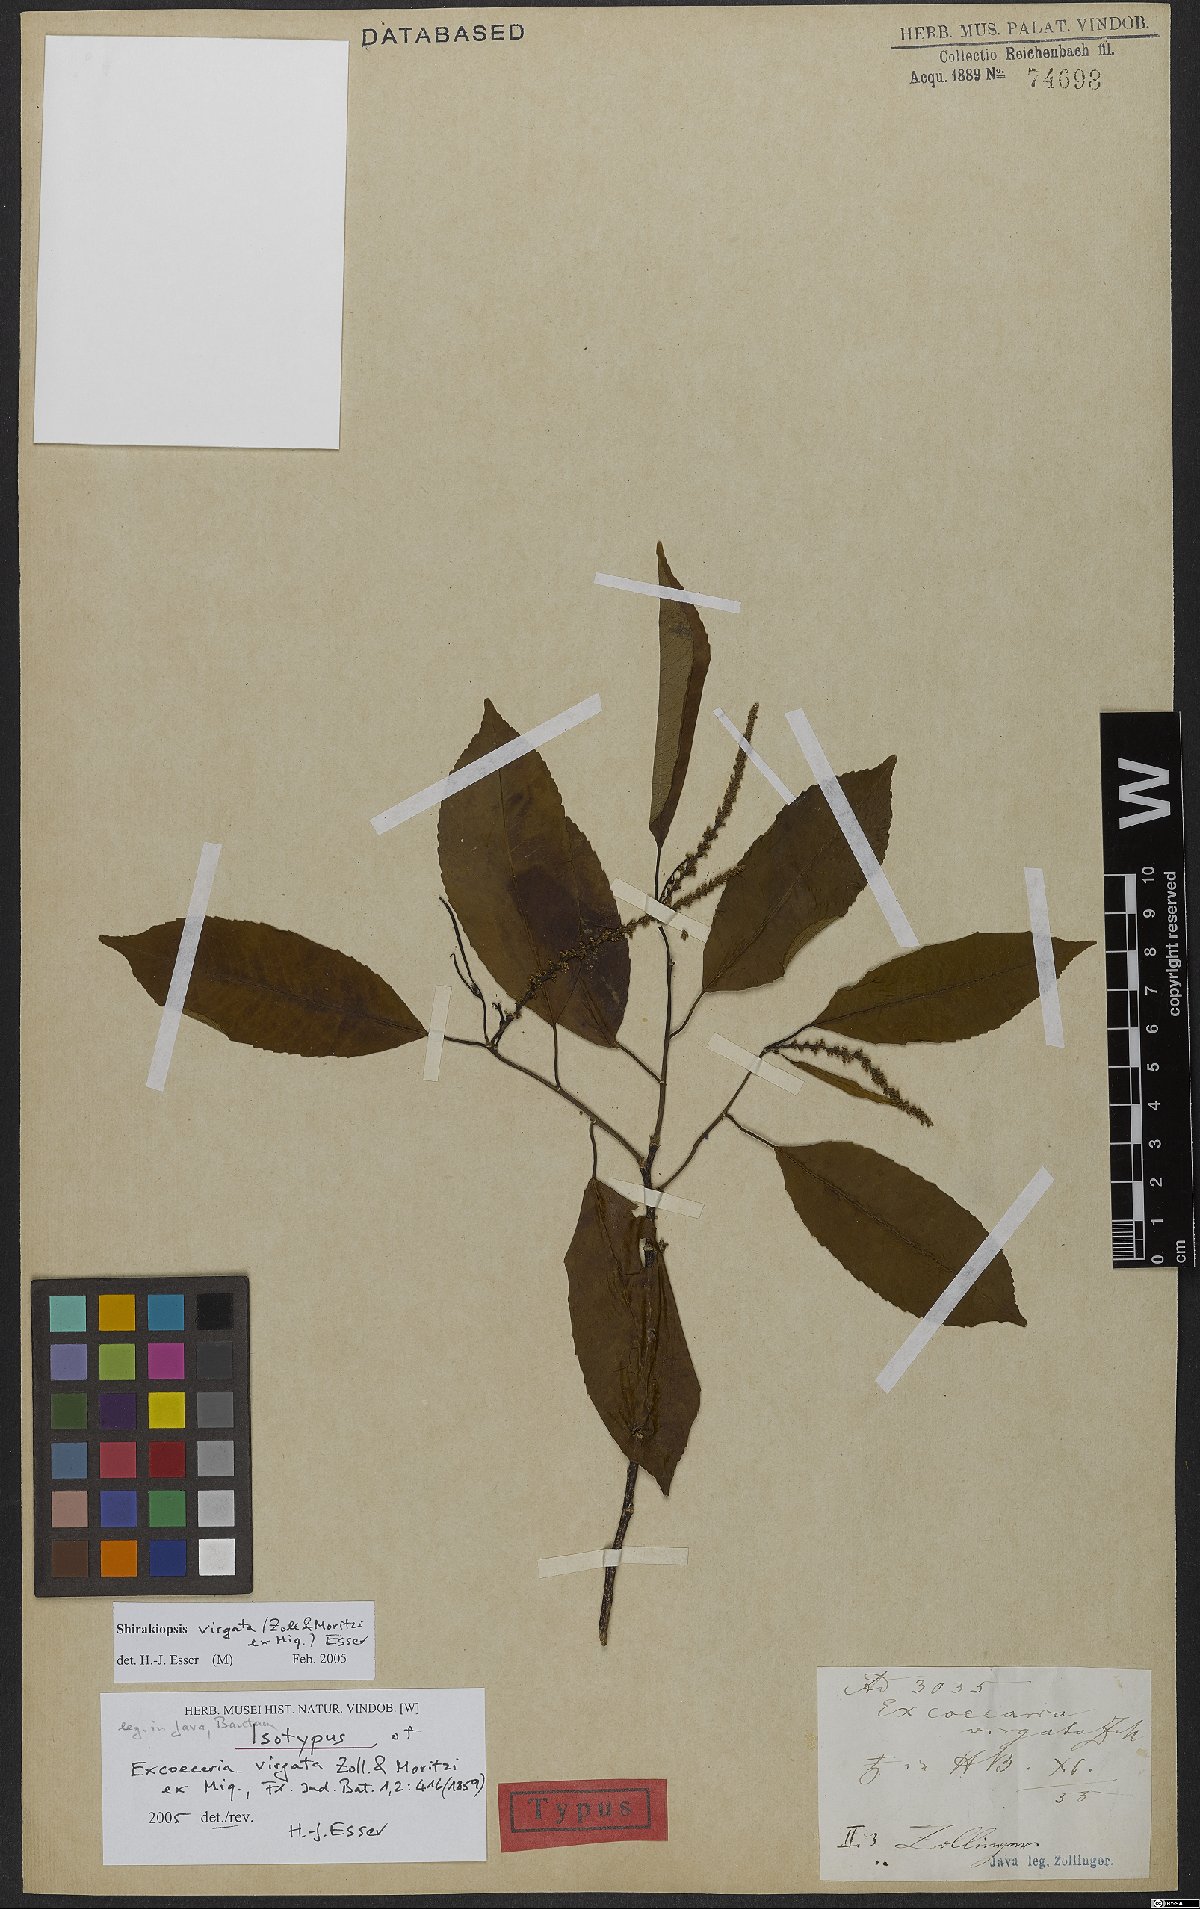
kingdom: Plantae
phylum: Tracheophyta
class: Magnoliopsida
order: Malpighiales
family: Euphorbiaceae
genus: Shirakiopsis
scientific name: Shirakiopsis virgata
